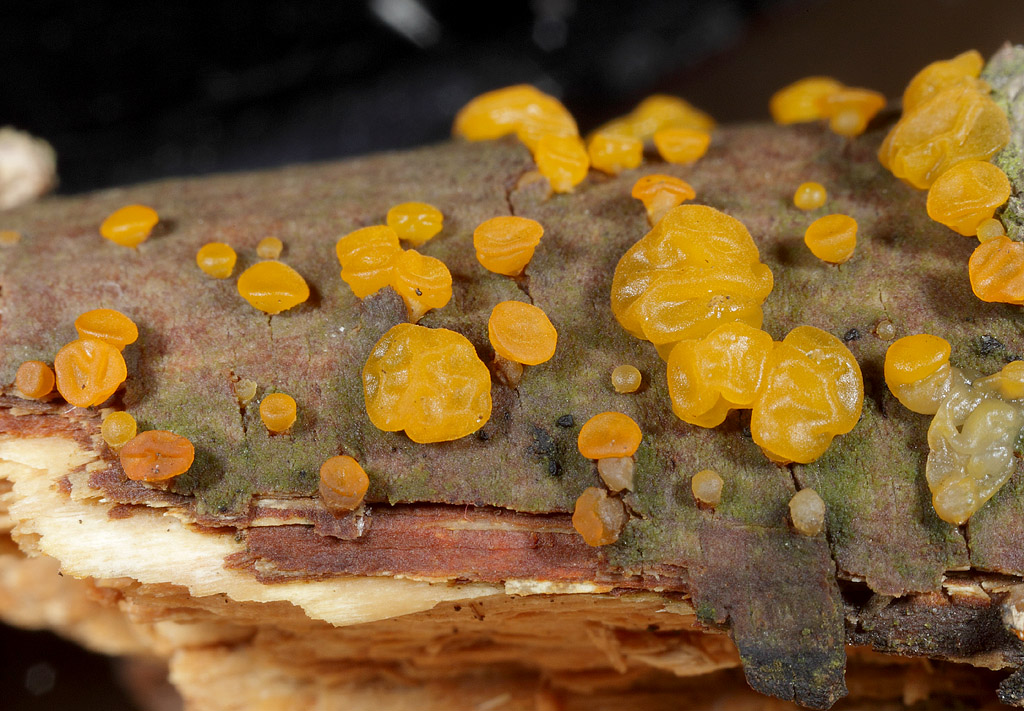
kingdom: Fungi
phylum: Basidiomycota
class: Dacrymycetes
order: Dacrymycetales
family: Dacrymycetaceae
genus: Dacrymyces
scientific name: Dacrymyces lacrymalis
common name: rynket tåresvamp
